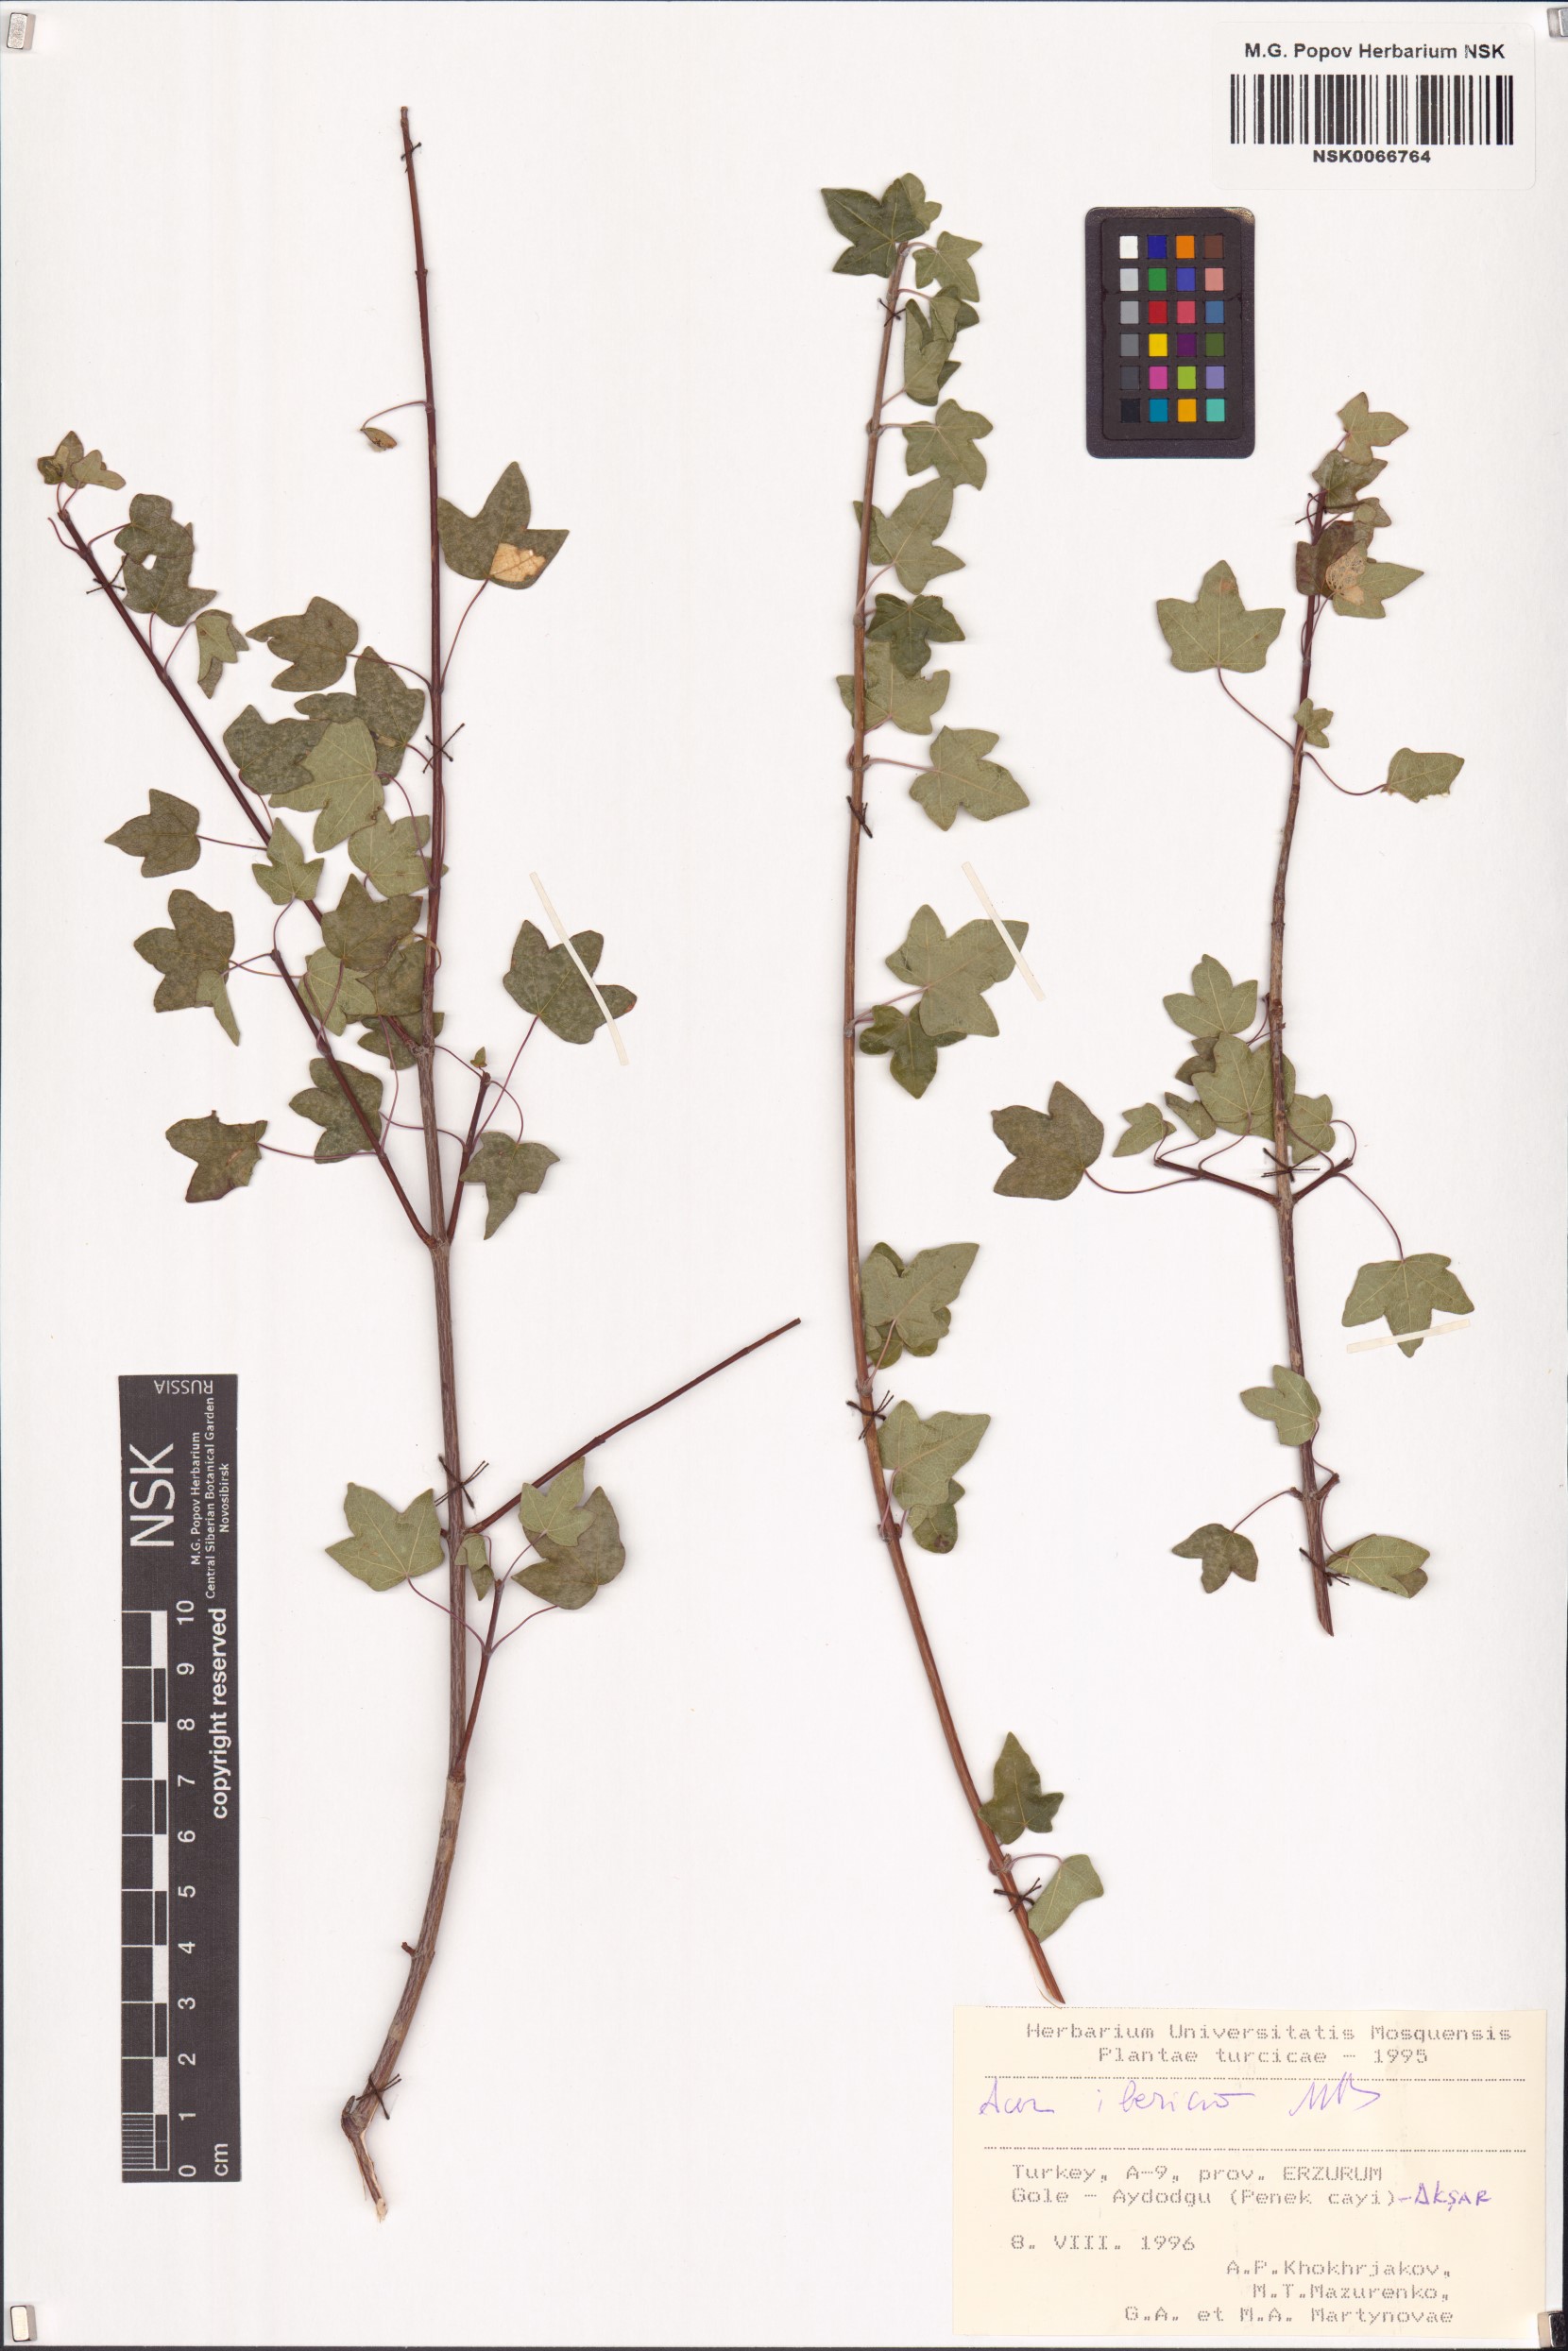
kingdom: Plantae
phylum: Tracheophyta
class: Magnoliopsida
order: Sapindales
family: Sapindaceae
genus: Acer
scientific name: Acer monspessulanum
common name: Montpellier maple
